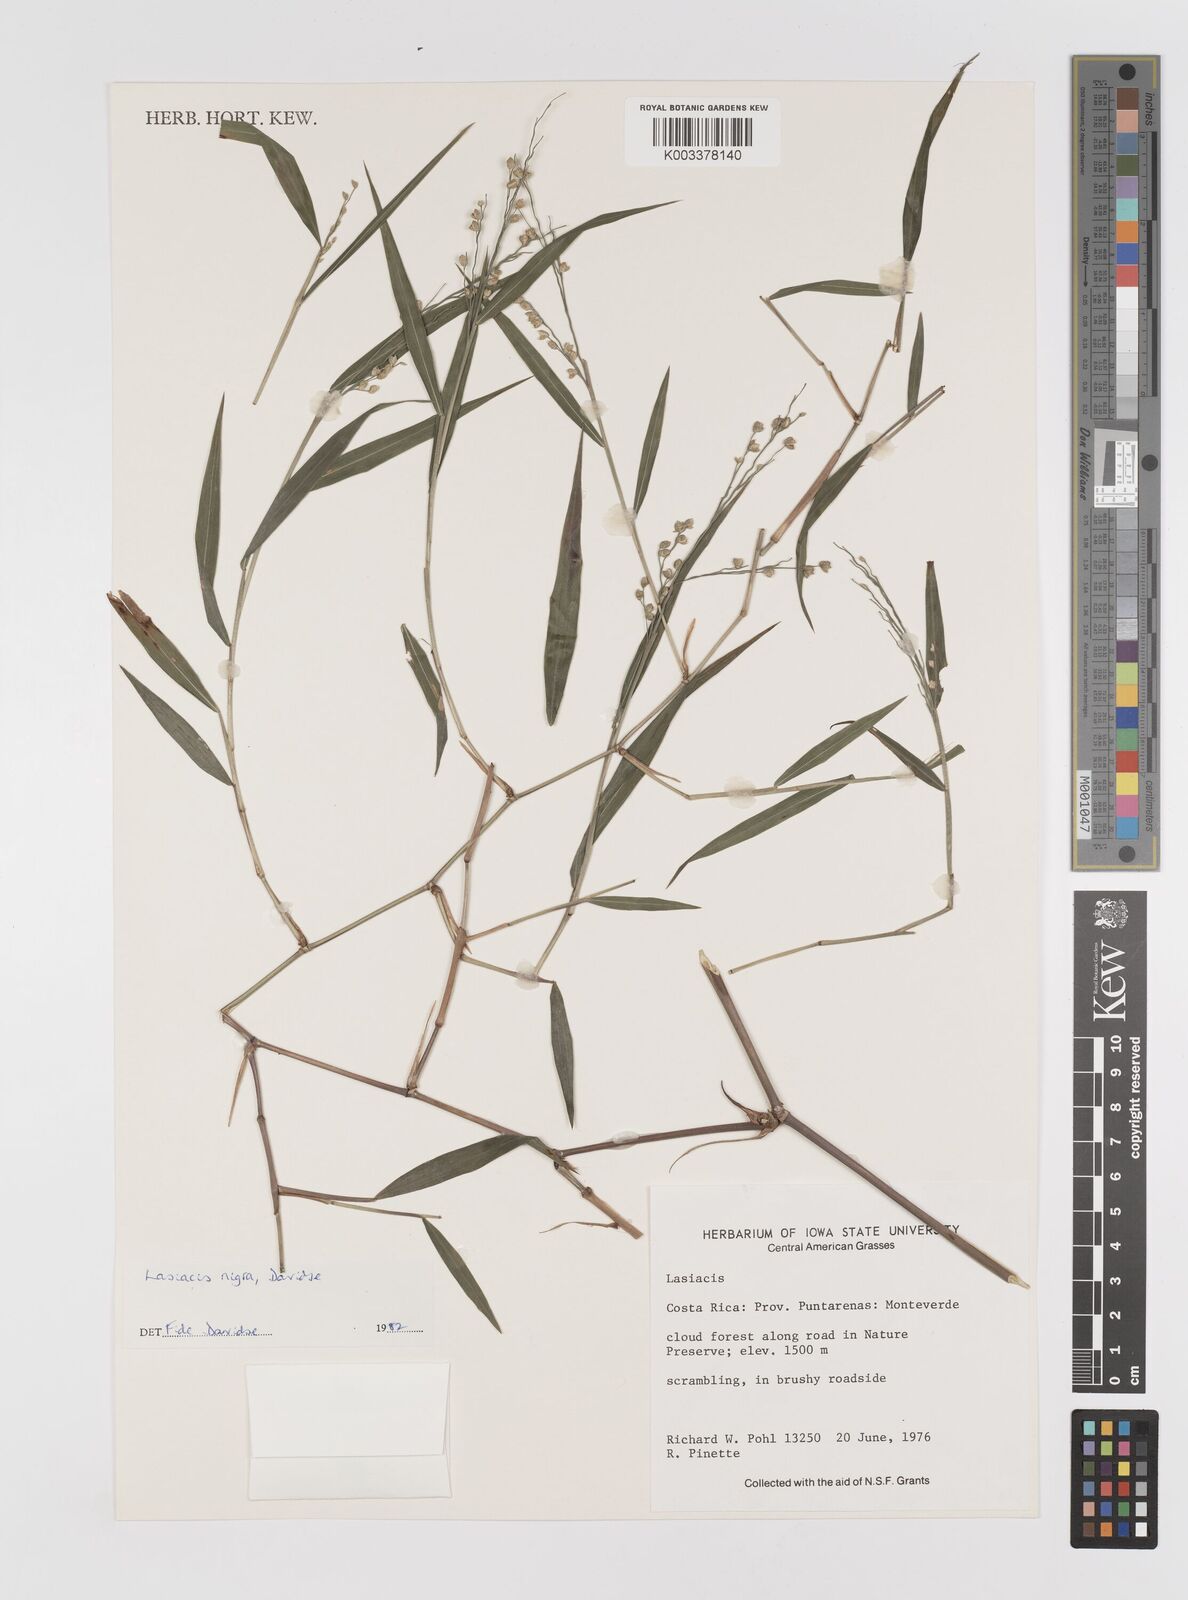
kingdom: Plantae
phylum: Tracheophyta
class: Liliopsida
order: Poales
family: Poaceae
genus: Lasiacis
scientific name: Lasiacis nigra
